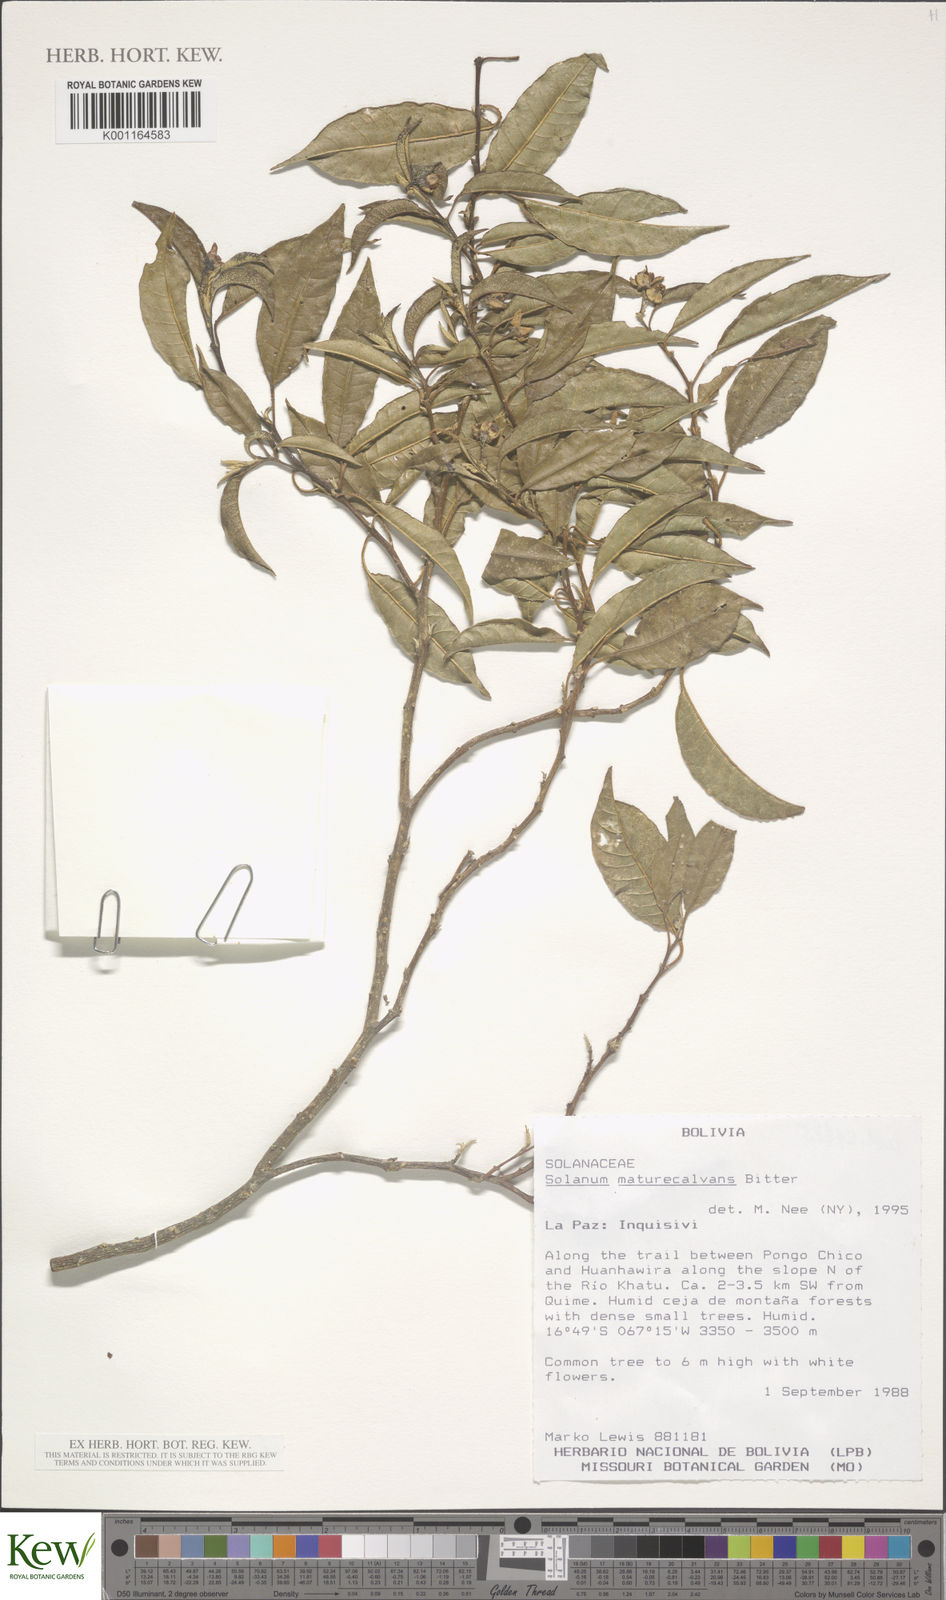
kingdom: Plantae
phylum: Tracheophyta
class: Magnoliopsida
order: Solanales
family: Solanaceae
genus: Solanum
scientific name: Solanum maturecalvans
